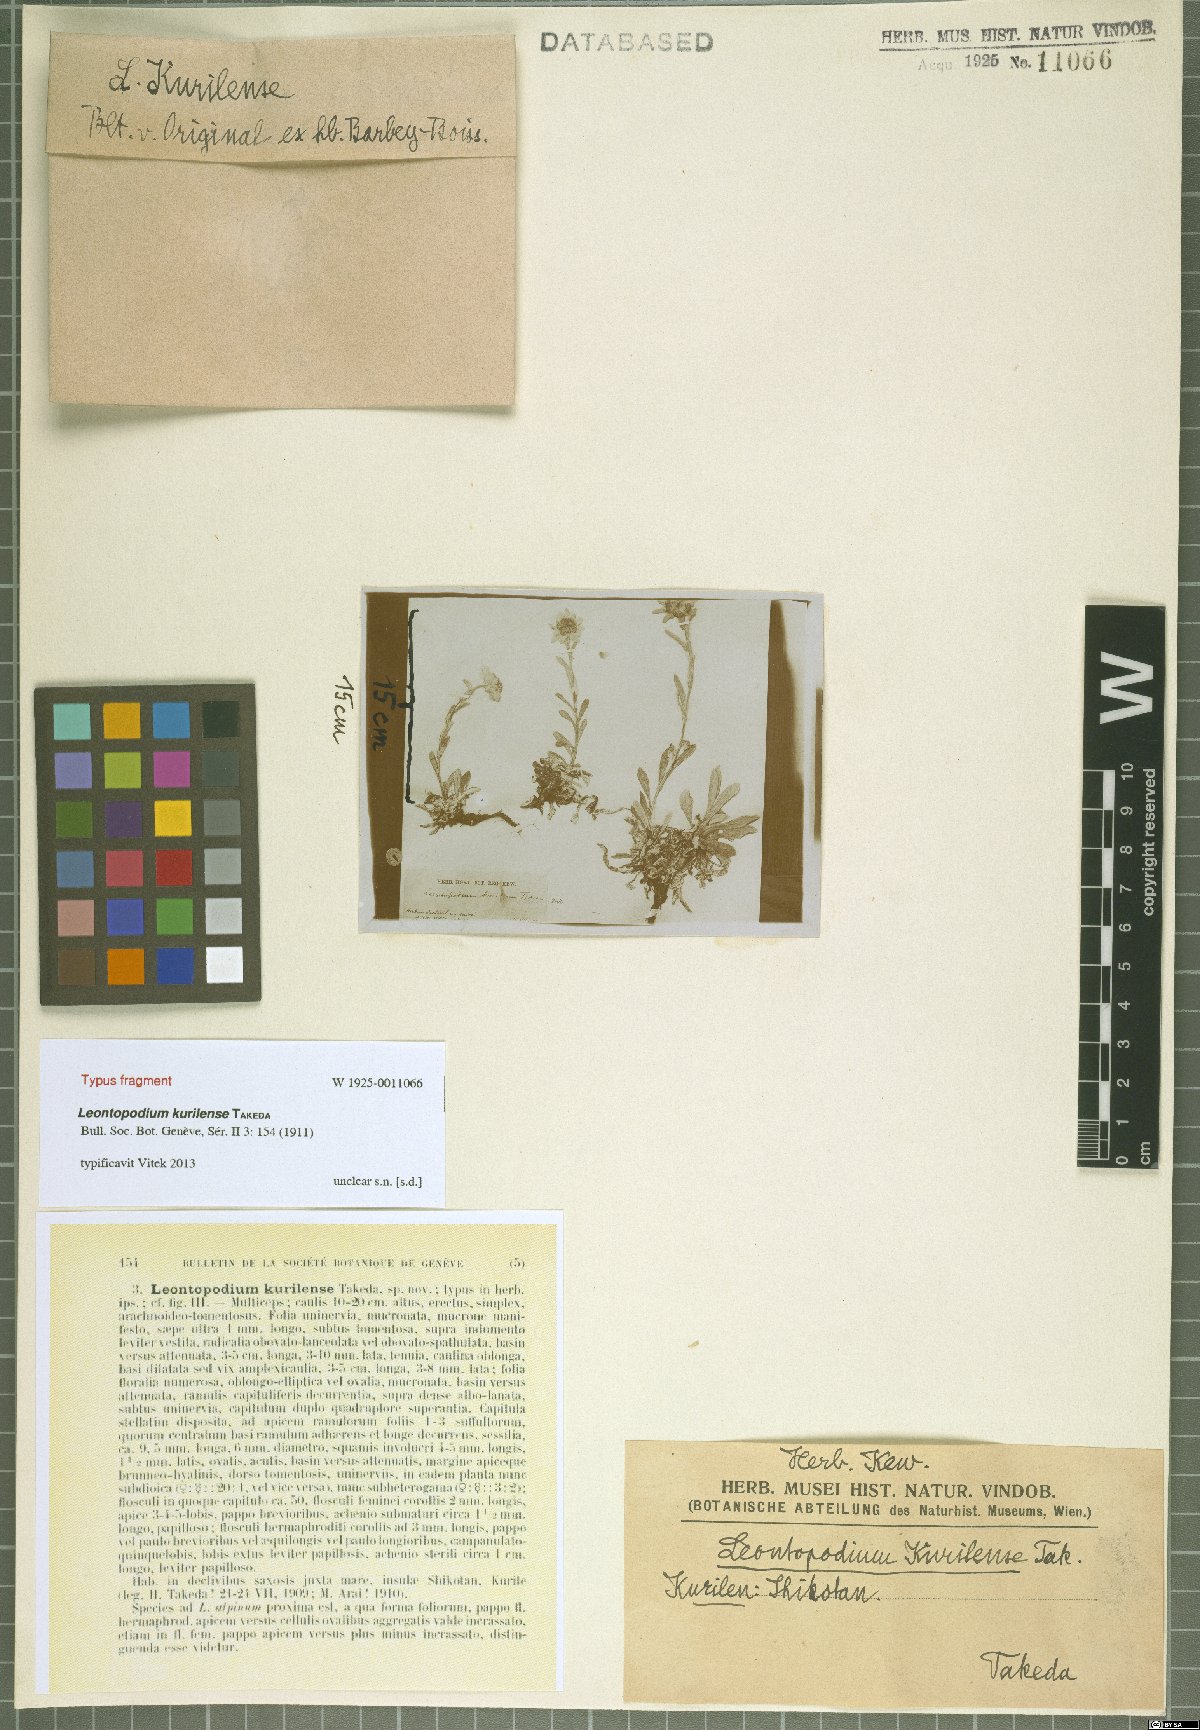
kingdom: Plantae
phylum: Tracheophyta
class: Magnoliopsida
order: Asterales
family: Asteraceae
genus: Leontopodium
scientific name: Leontopodium kurilense
